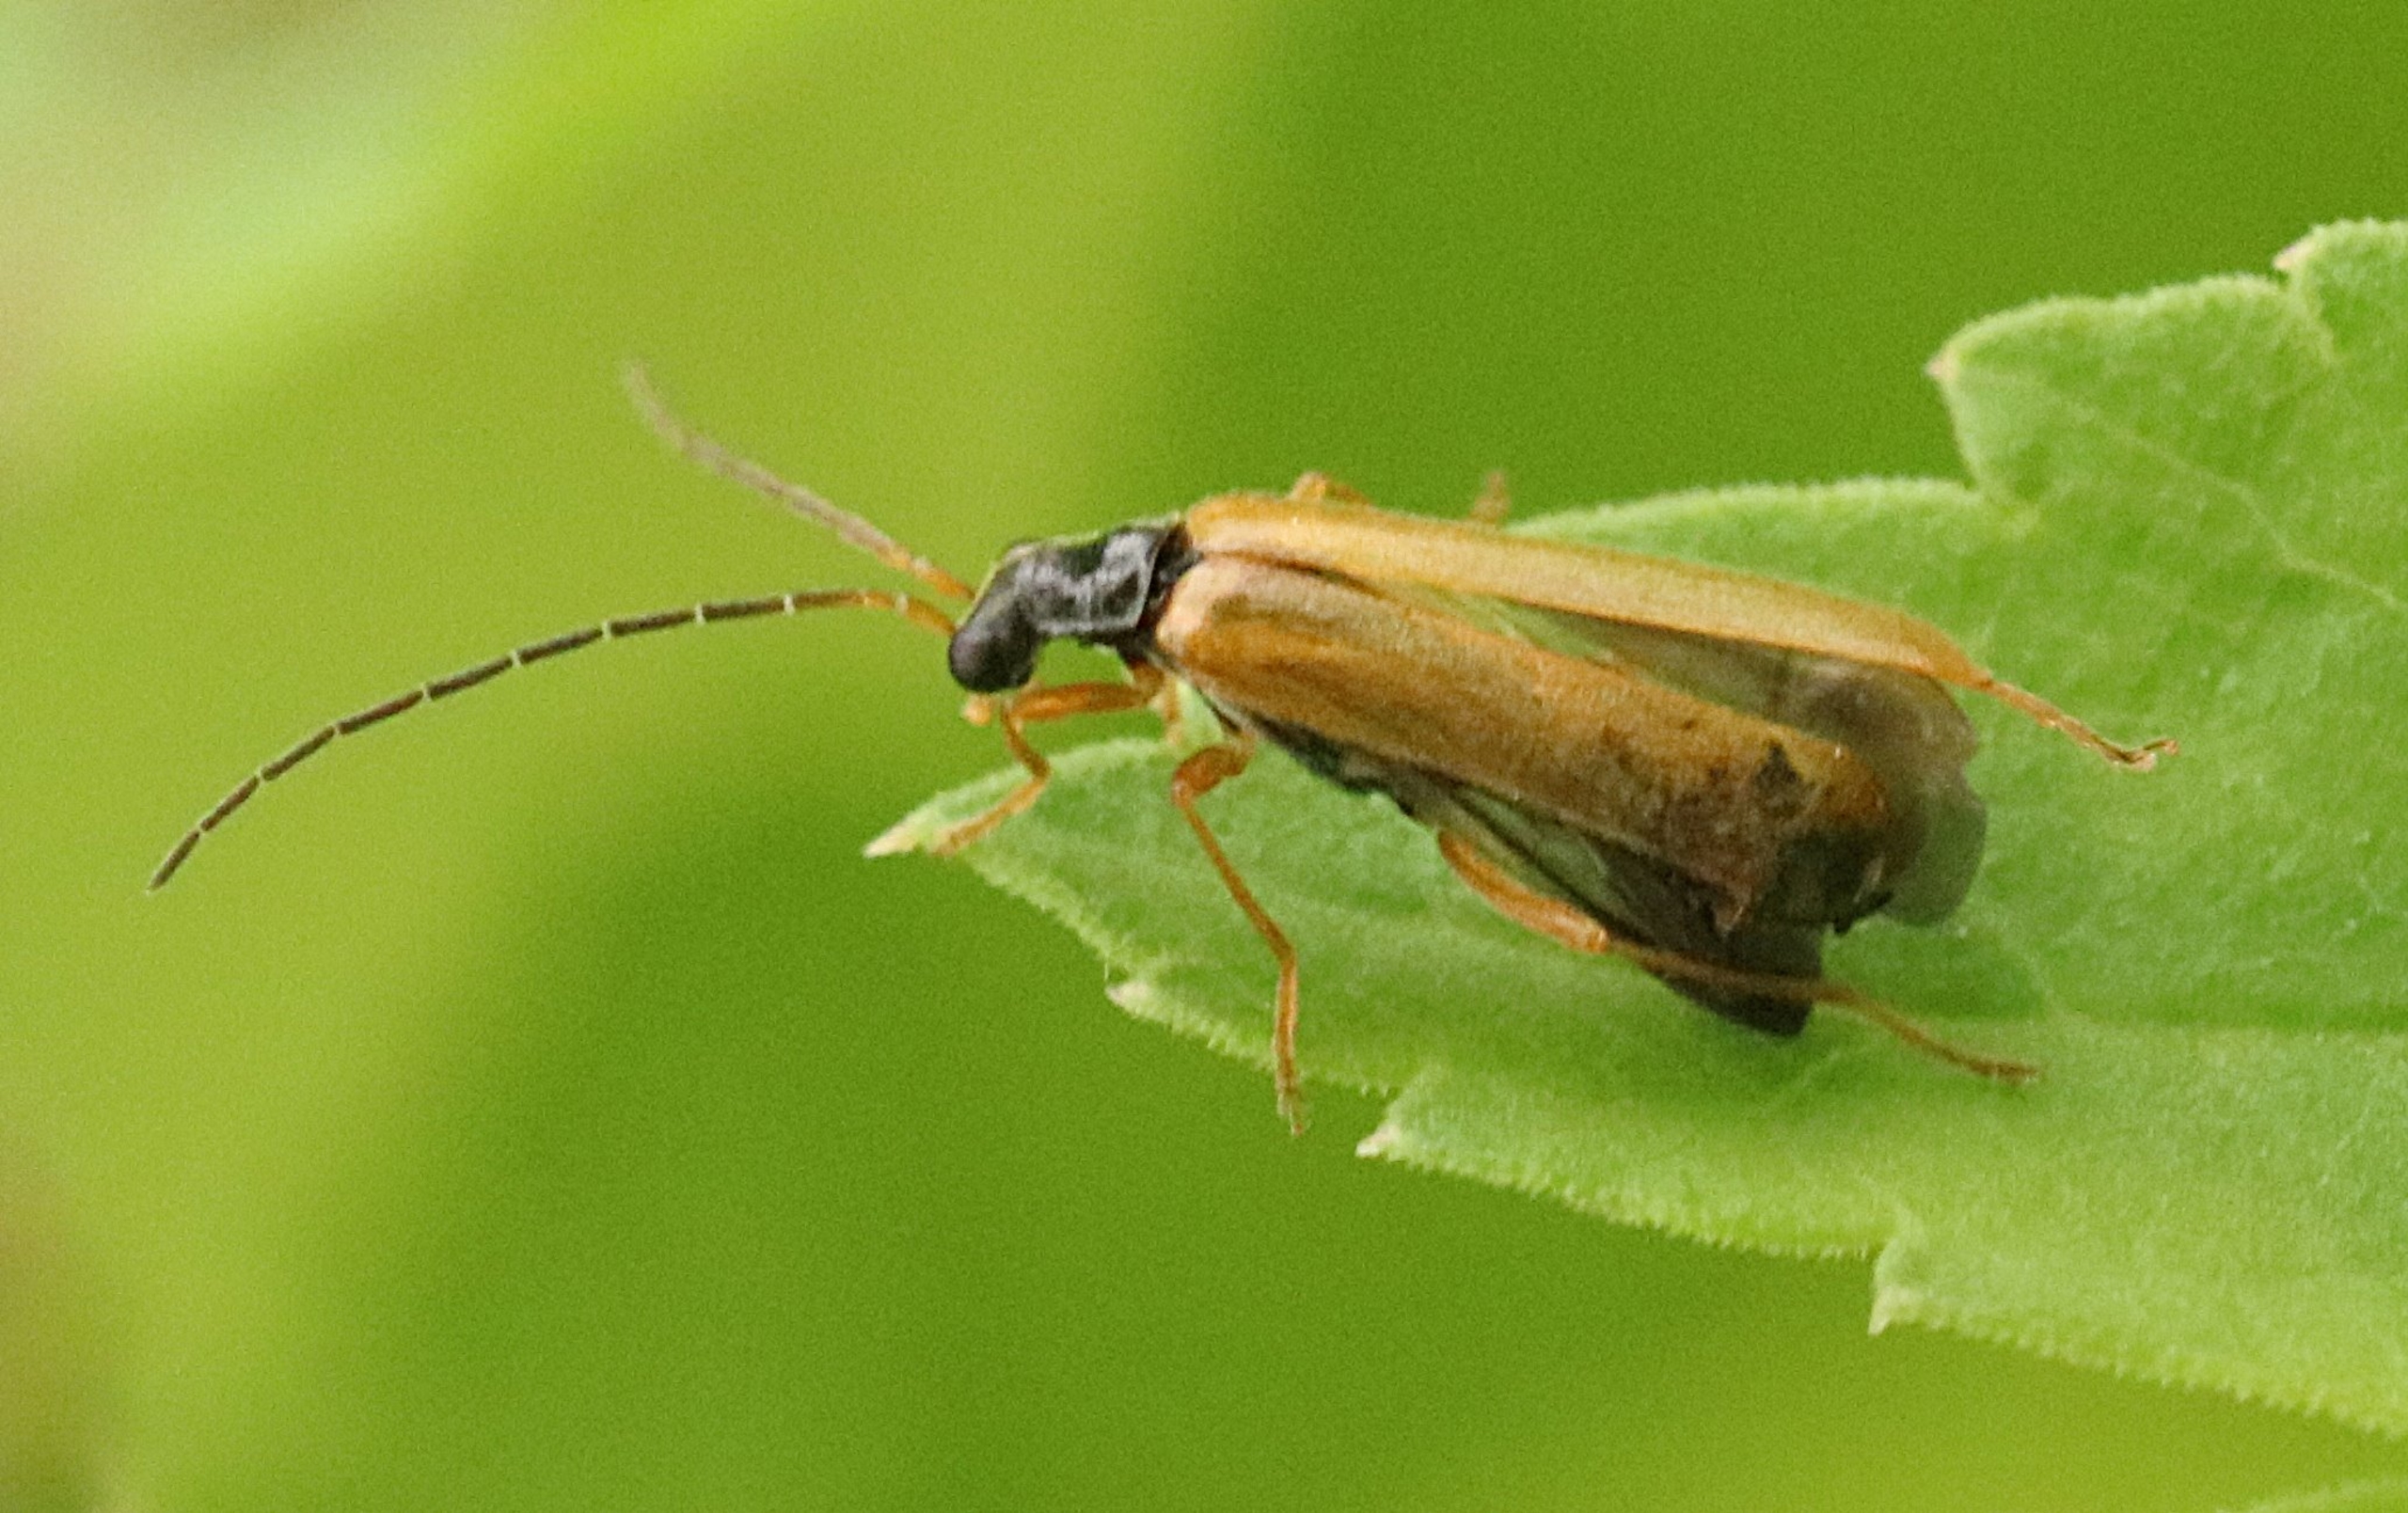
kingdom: Animalia
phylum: Arthropoda
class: Insecta
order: Coleoptera
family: Cantharidae
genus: Rhagonycha
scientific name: Rhagonycha lignosa
